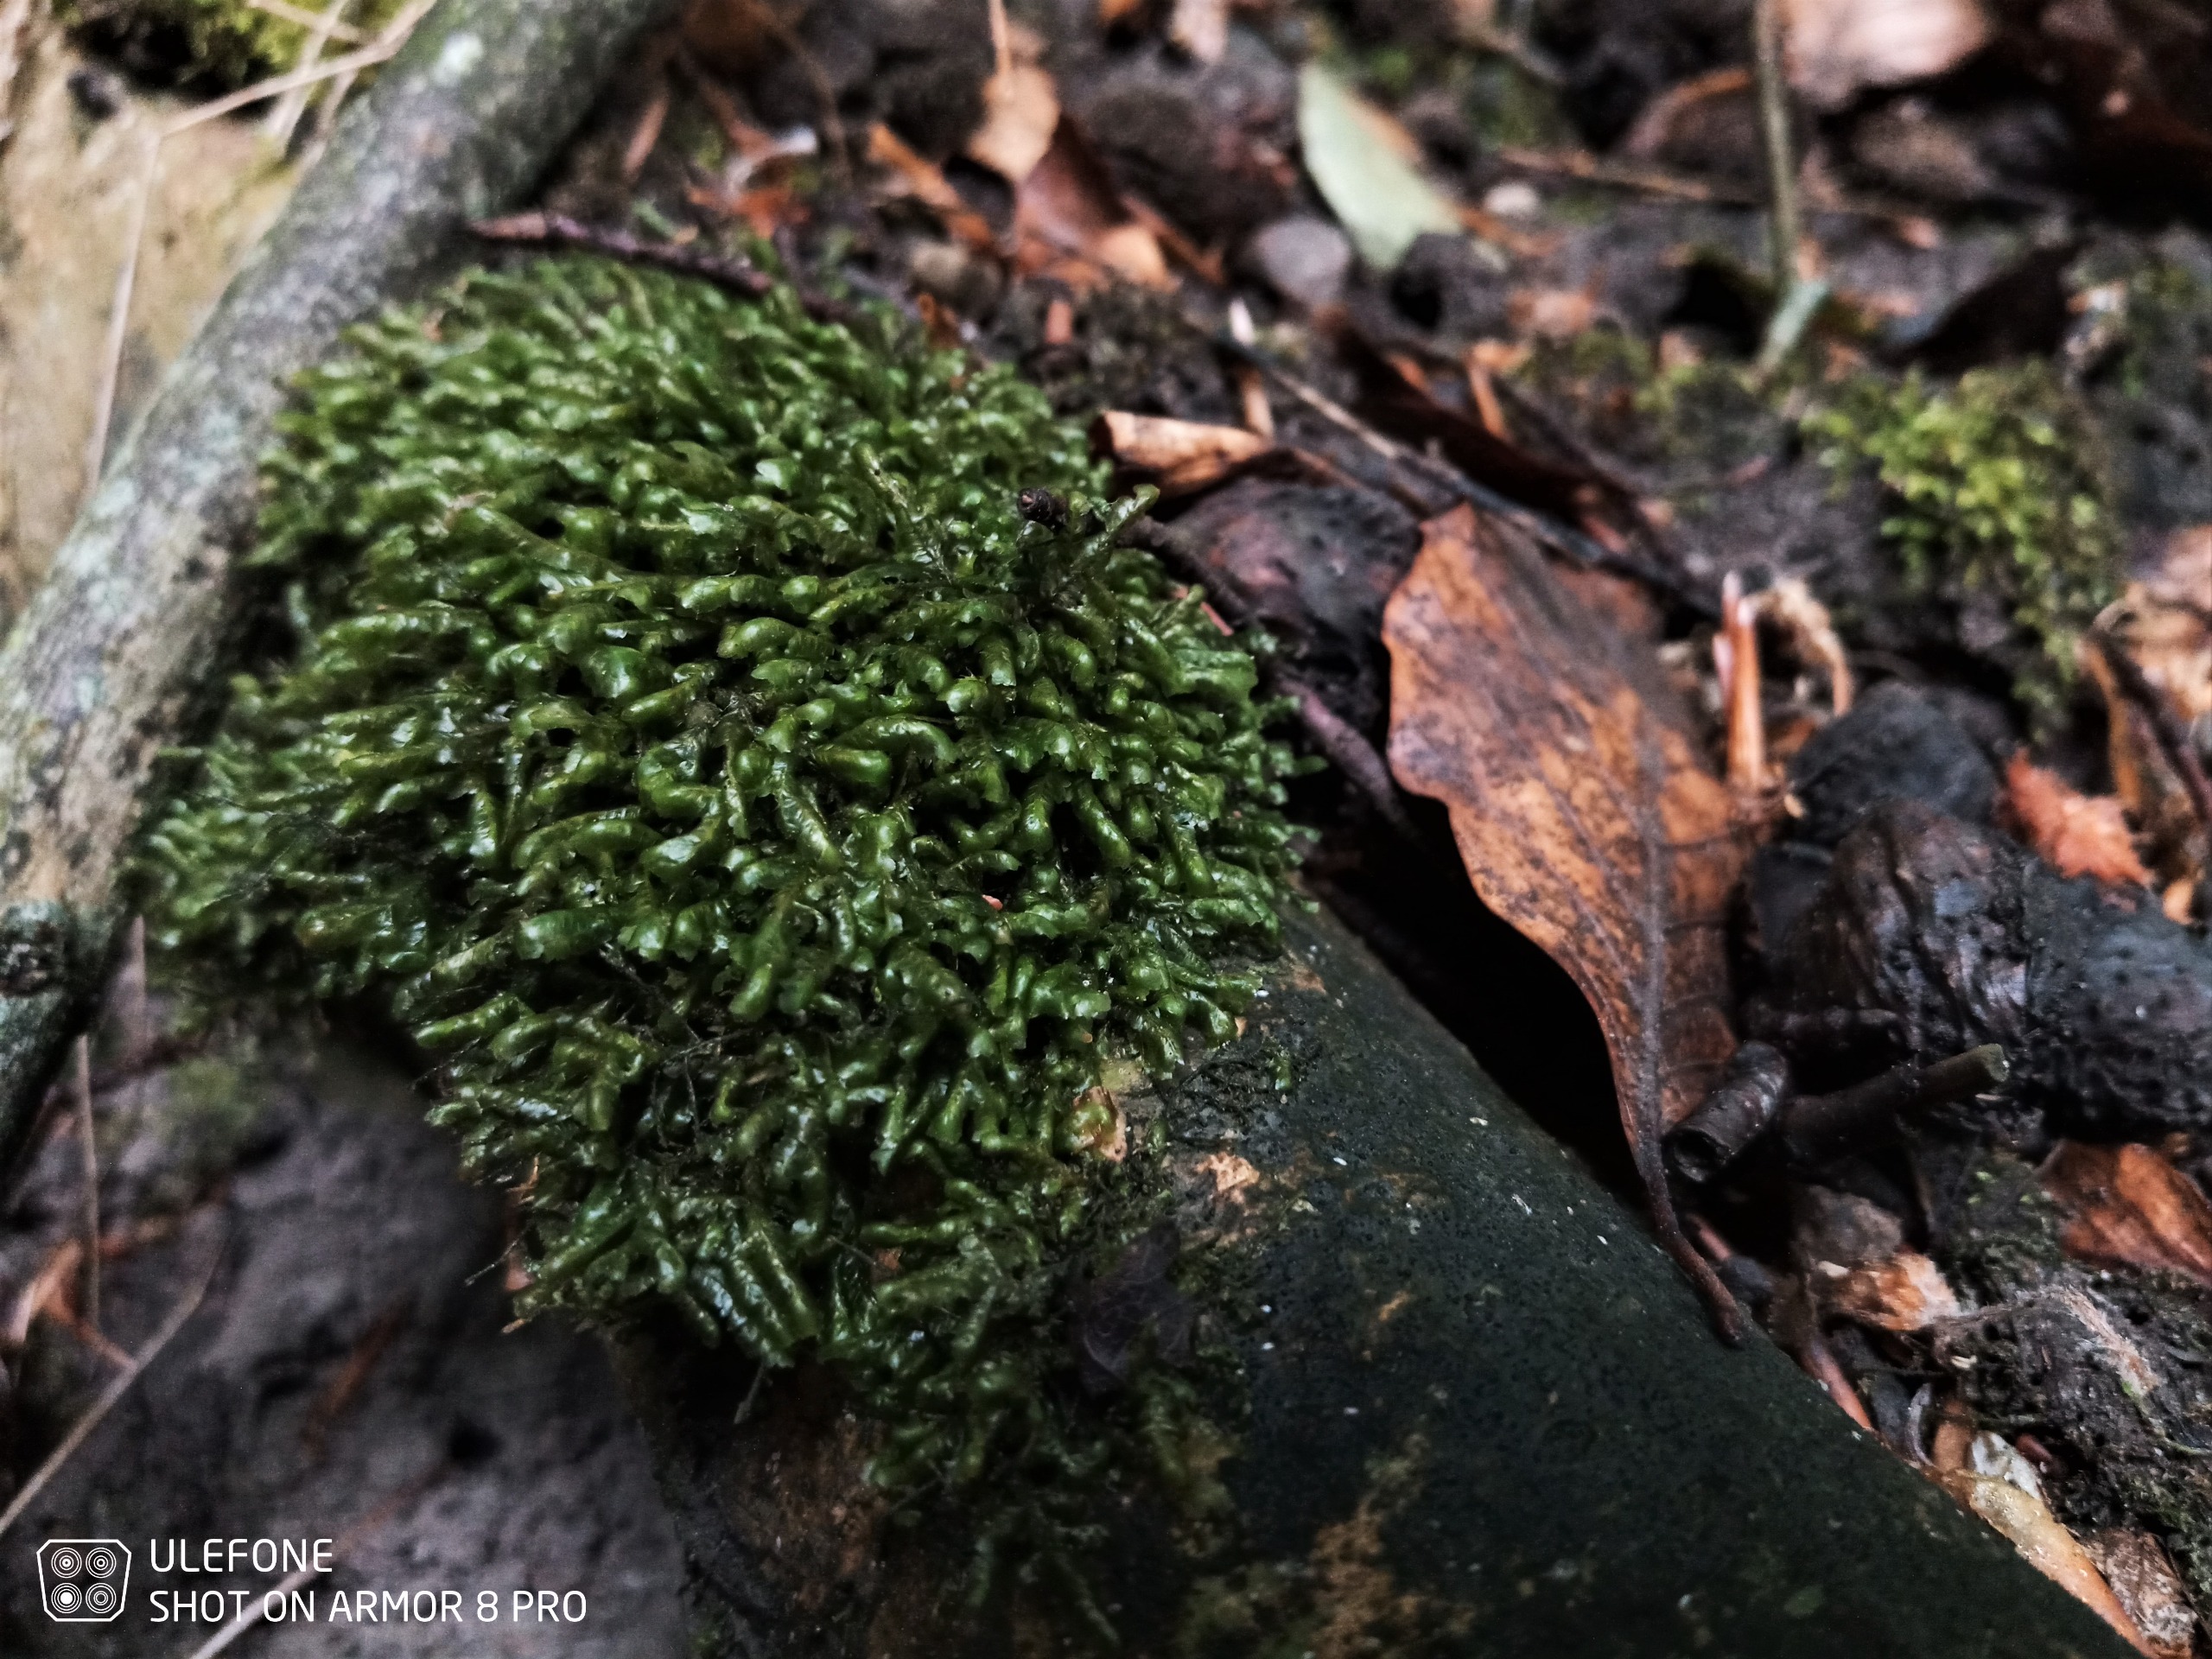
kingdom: Plantae
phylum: Bryophyta
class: Bryopsida
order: Hypnales
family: Neckeraceae
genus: Homalia
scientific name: Homalia trichomanoides
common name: Skov-tungemos
